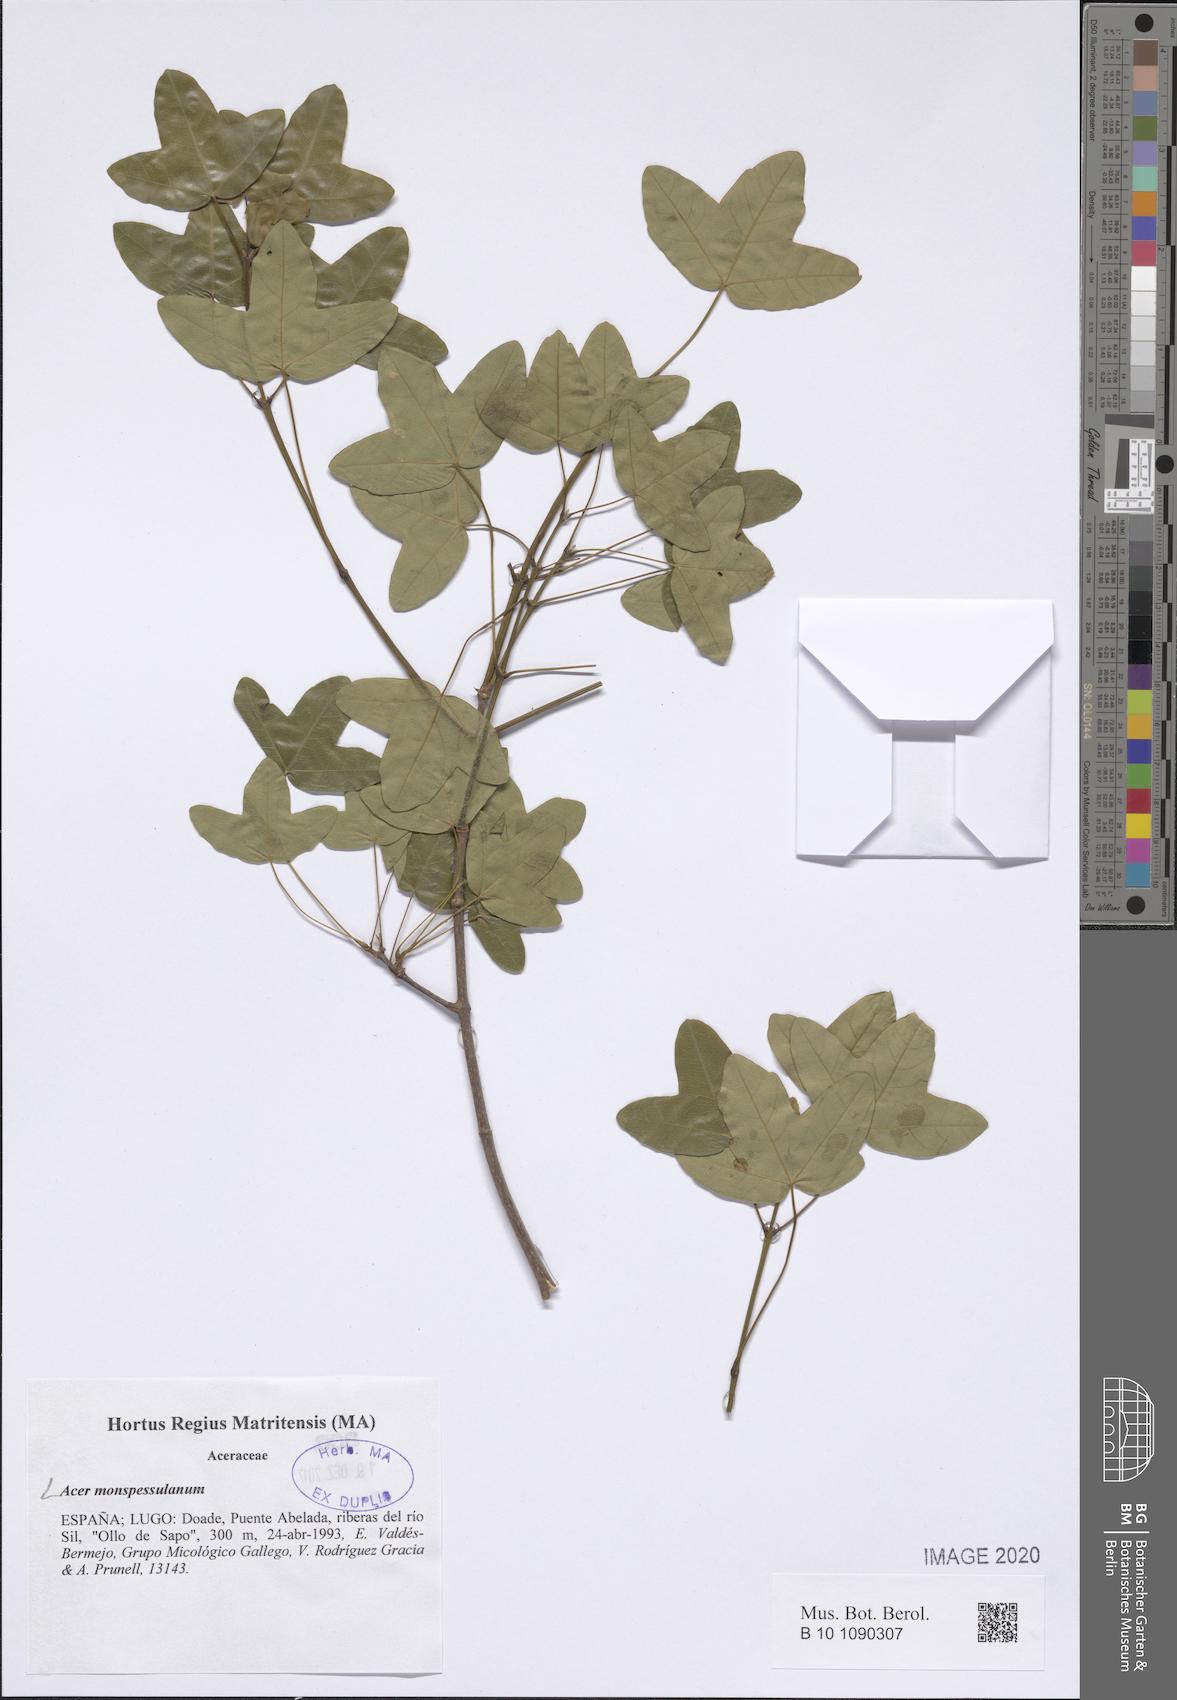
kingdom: Plantae
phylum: Tracheophyta
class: Magnoliopsida
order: Sapindales
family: Sapindaceae
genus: Acer
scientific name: Acer monspessulanum
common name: Montpellier maple
